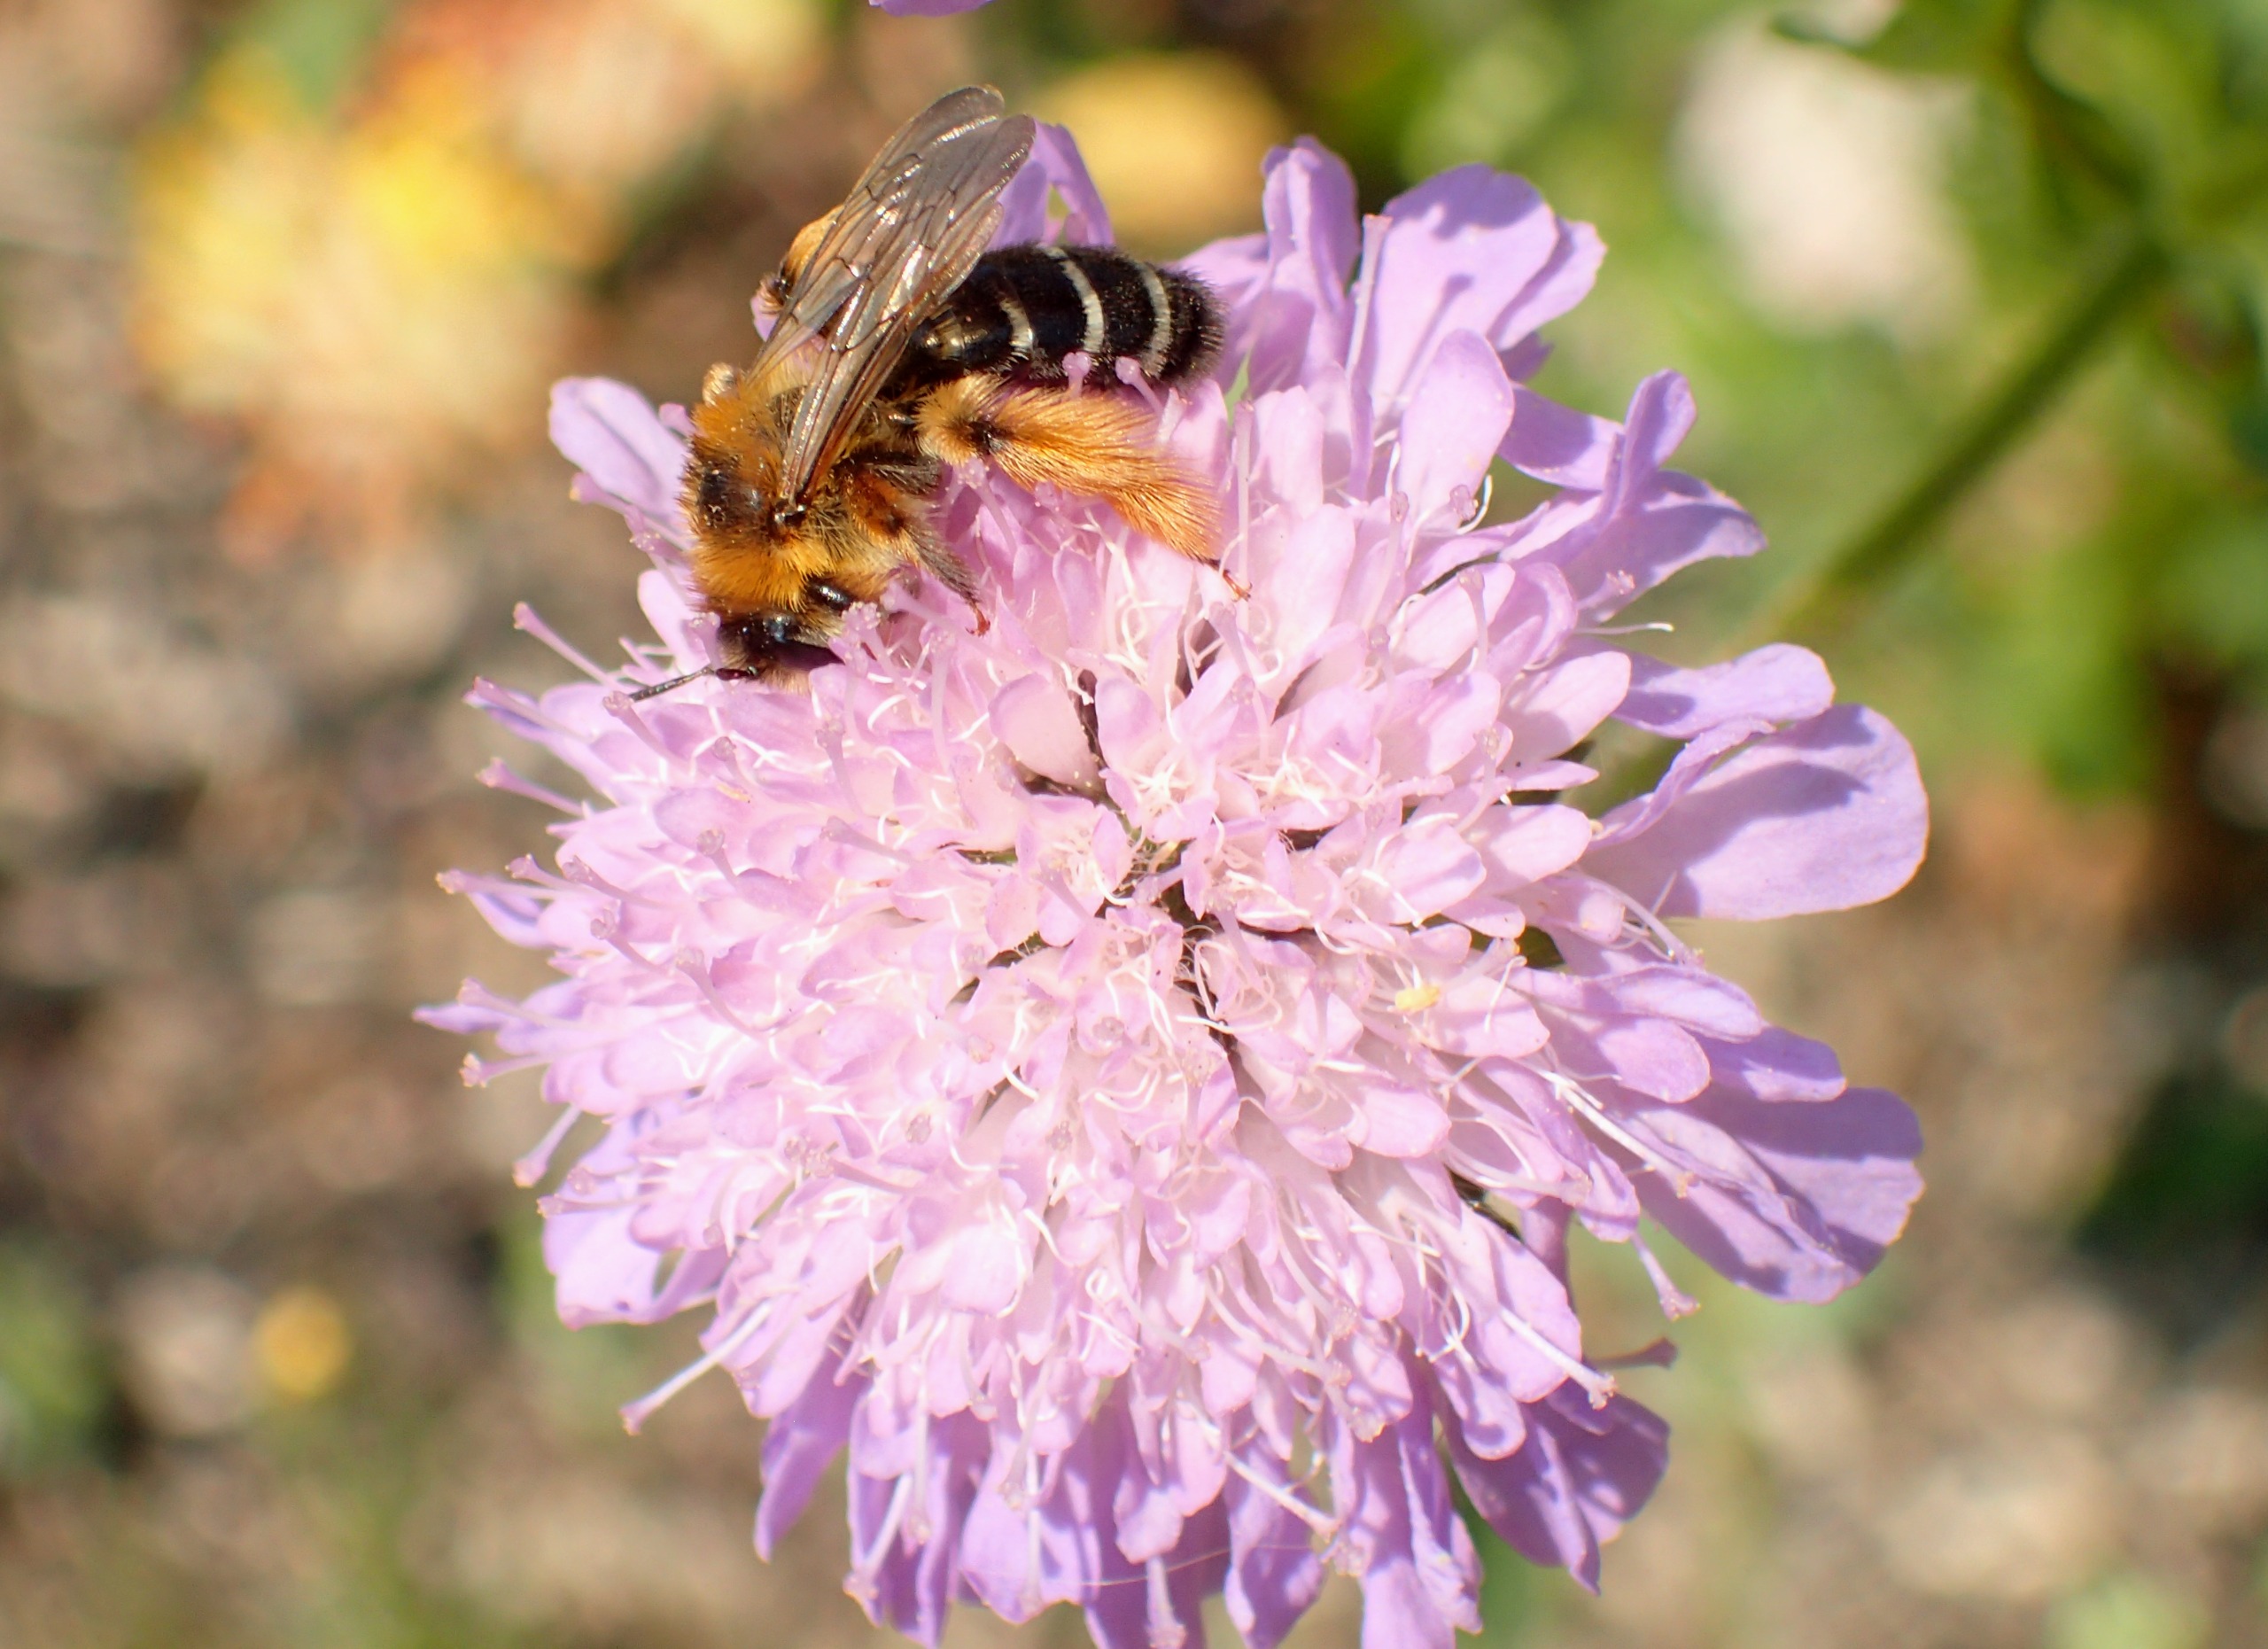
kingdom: Animalia
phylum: Arthropoda
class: Insecta
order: Hymenoptera
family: Melittidae
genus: Dasypoda
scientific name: Dasypoda hirtipes
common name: Pragtbuksebi
